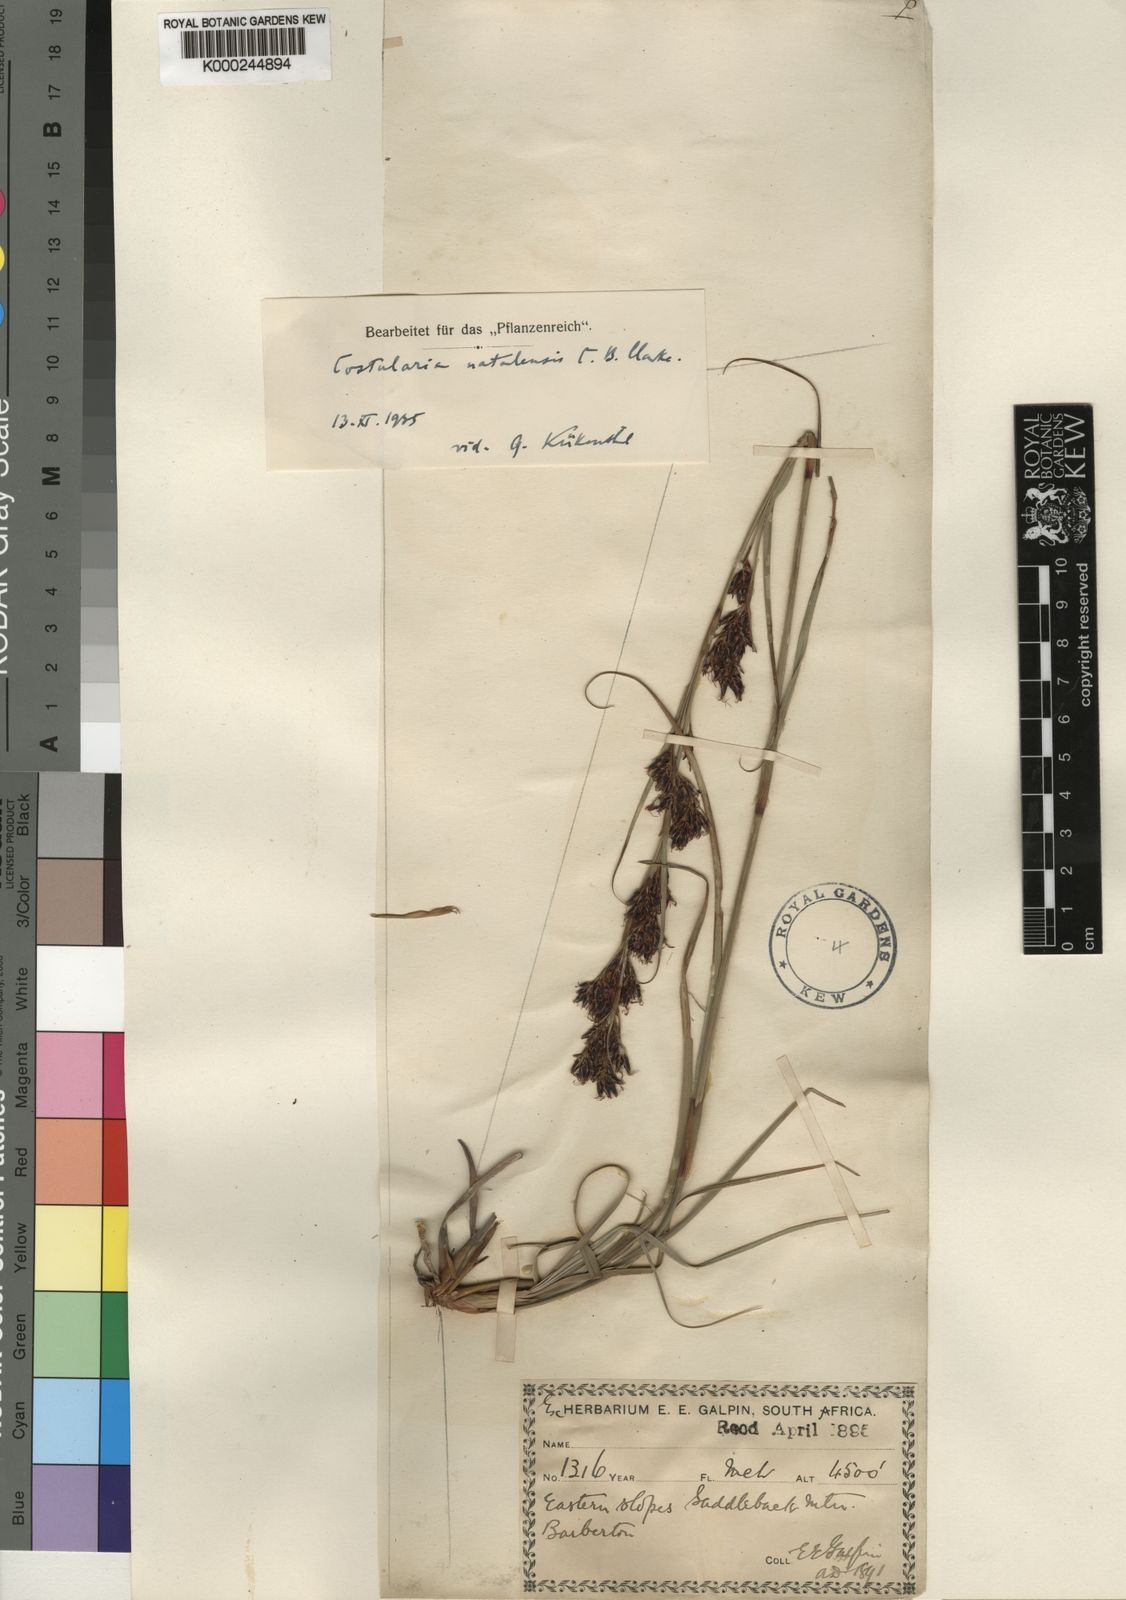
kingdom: Plantae
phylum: Tracheophyta
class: Liliopsida
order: Poales
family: Cyperaceae
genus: Costularia
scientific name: Costularia natalensis
